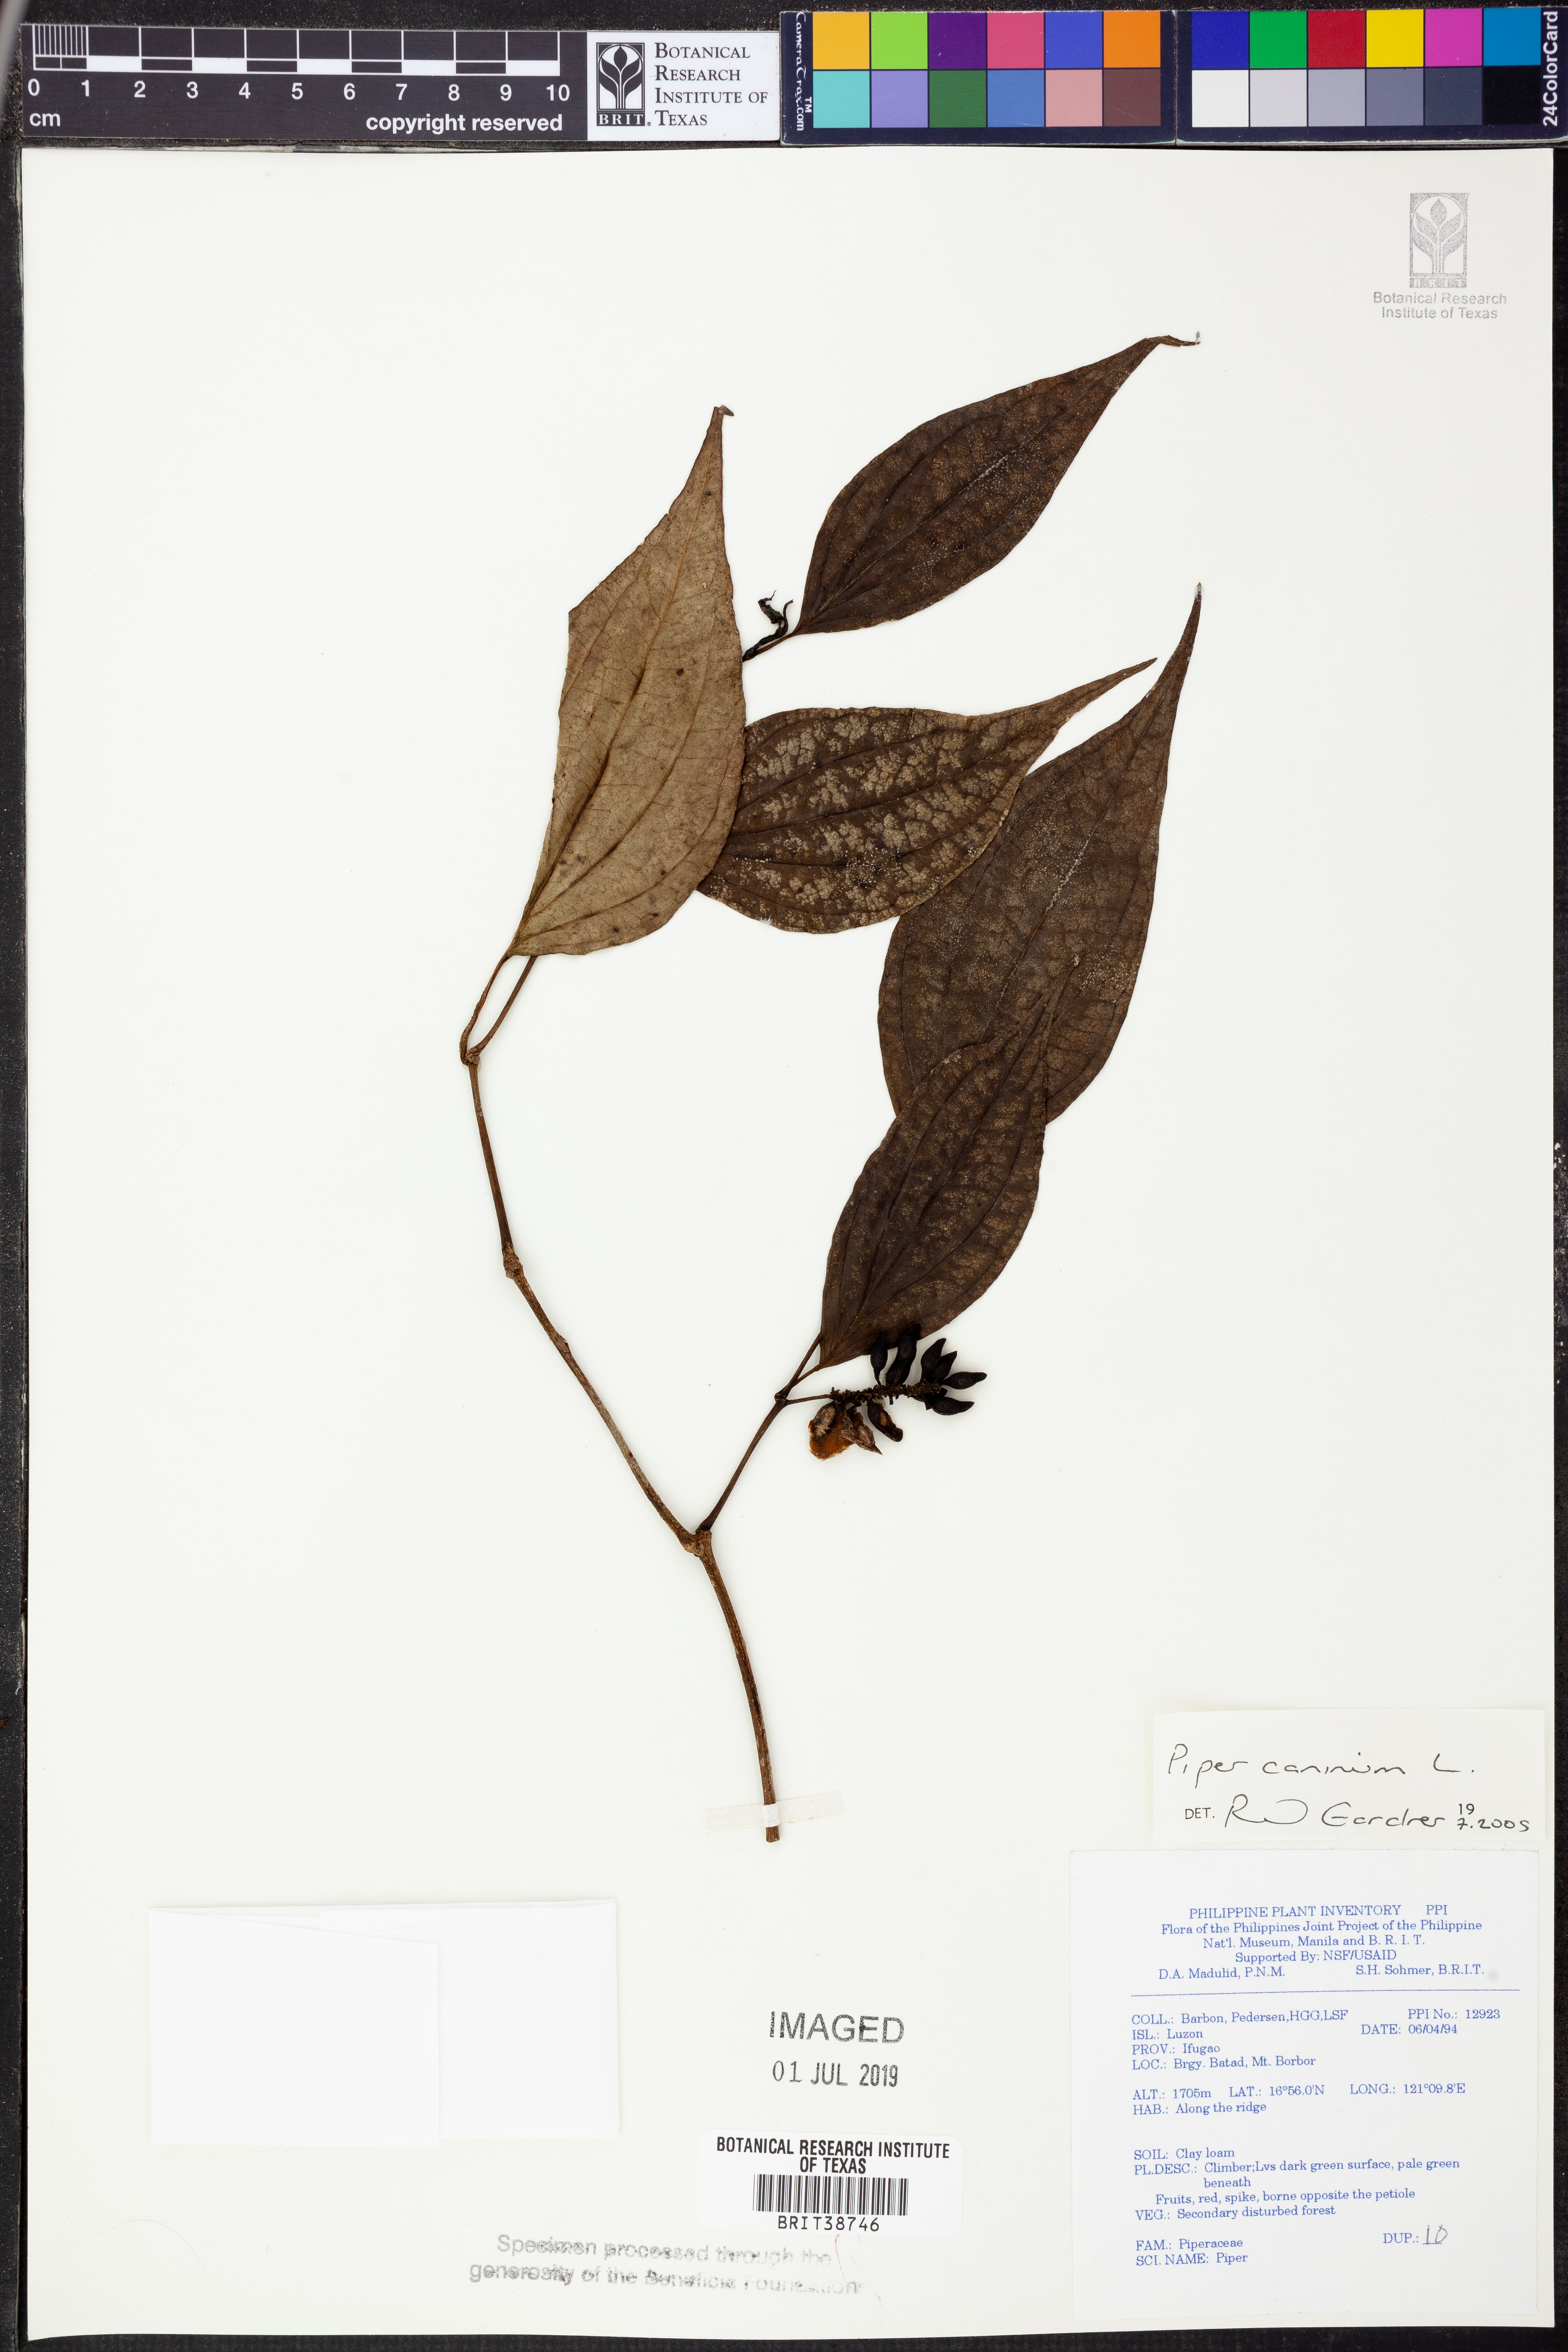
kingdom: Plantae
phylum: Tracheophyta
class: Magnoliopsida
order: Piperales
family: Piperaceae
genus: Piper
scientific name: Piper lanatum
